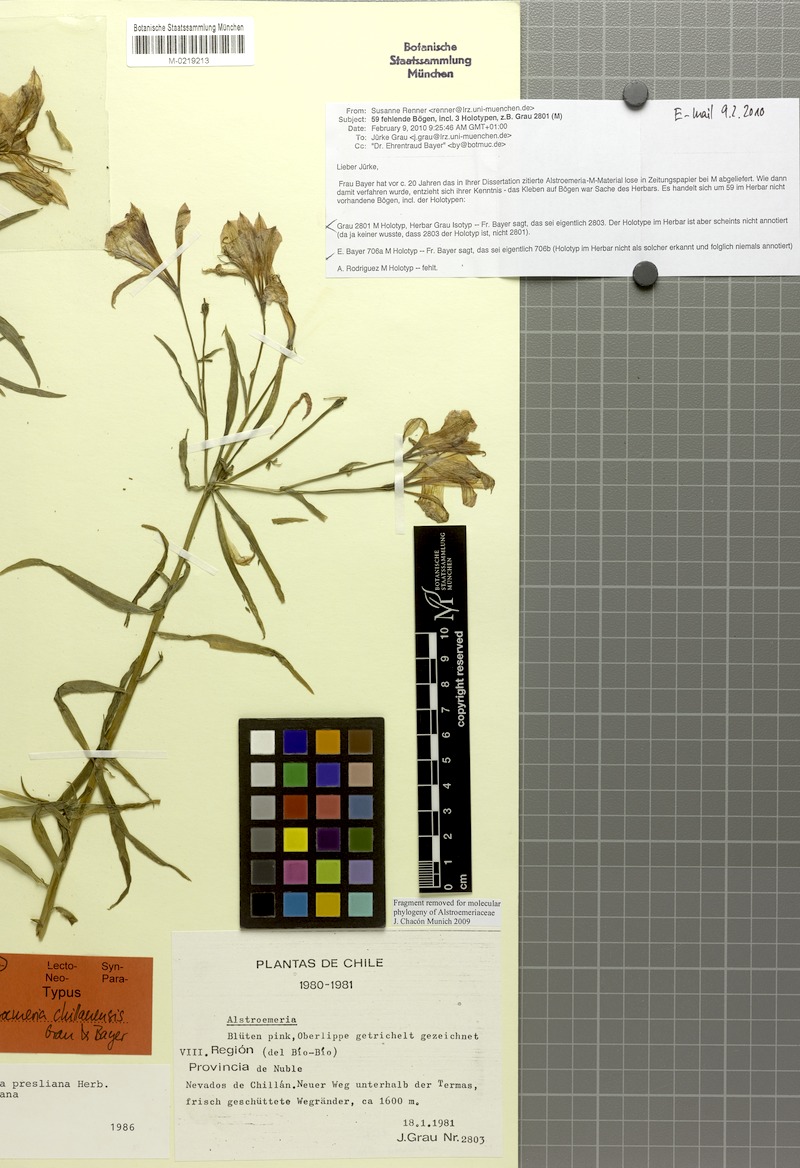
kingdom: Plantae
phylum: Tracheophyta
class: Liliopsida
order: Liliales
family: Alstroemeriaceae
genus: Alstroemeria
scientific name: Alstroemeria presliana
